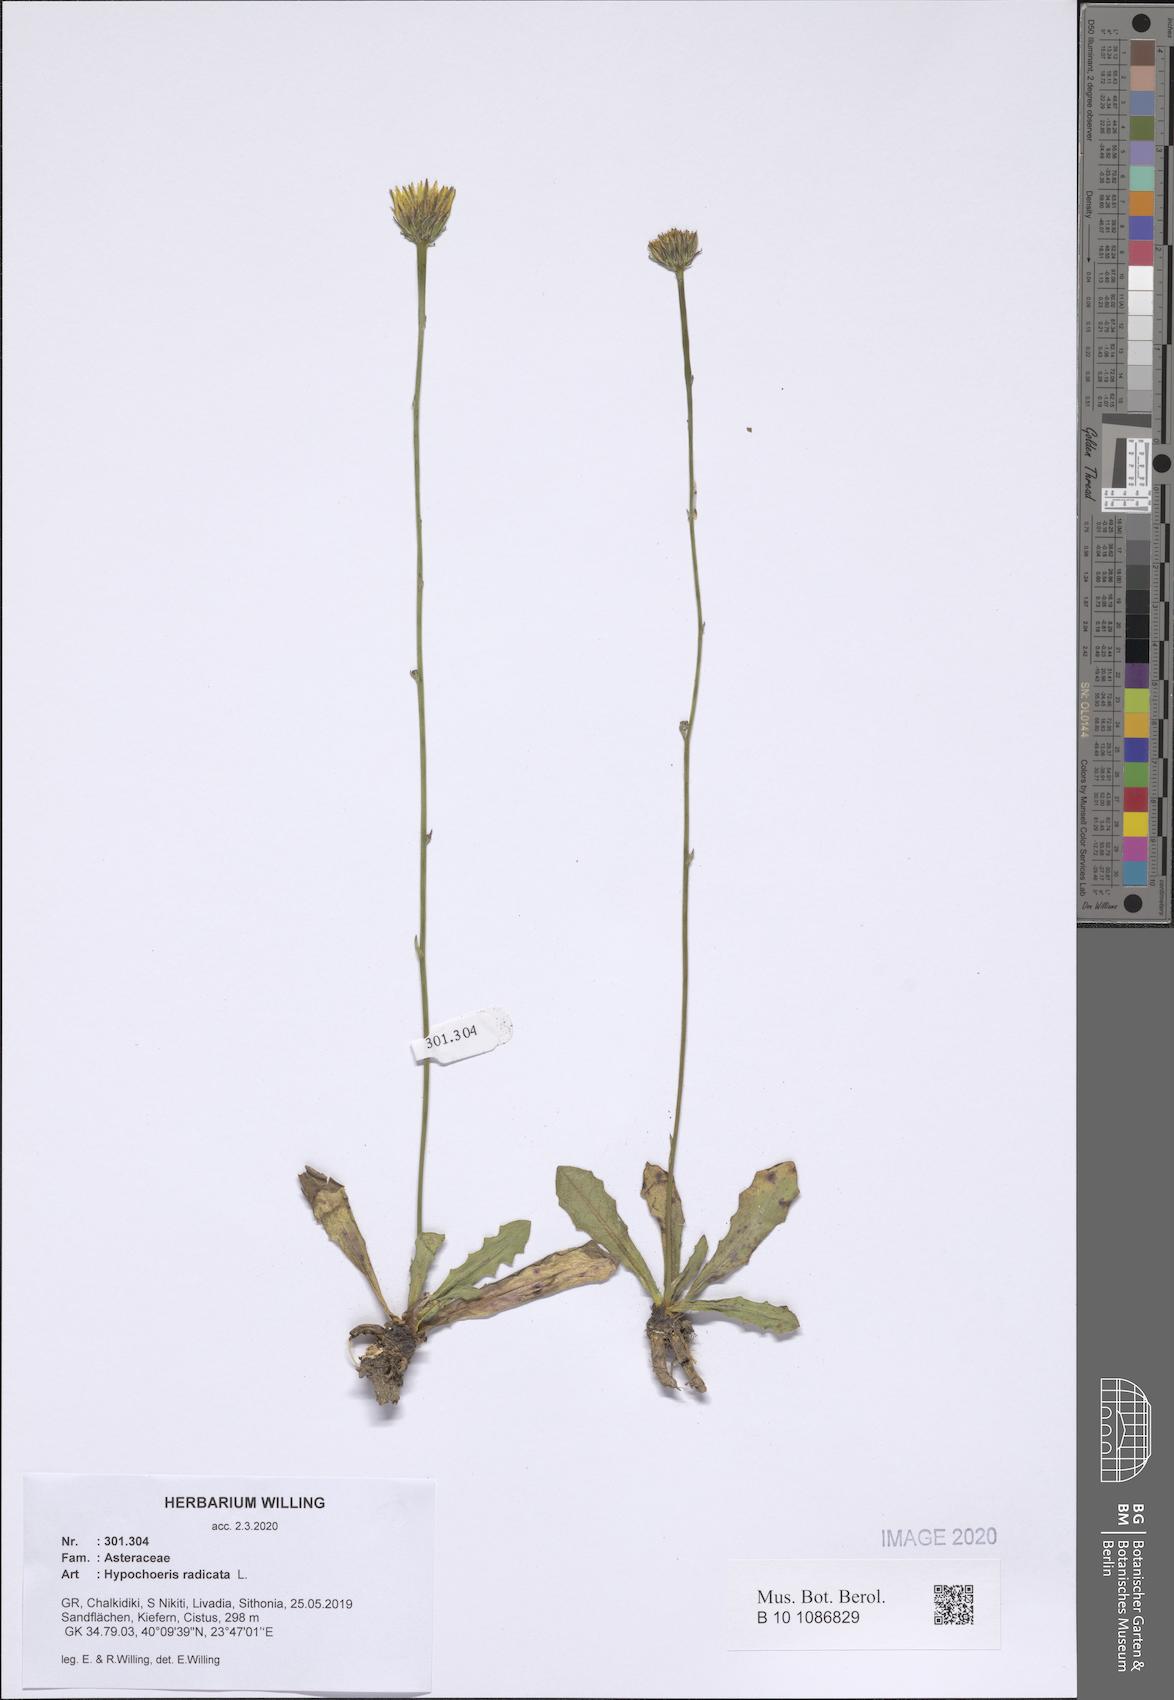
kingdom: Plantae
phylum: Tracheophyta
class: Magnoliopsida
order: Asterales
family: Asteraceae
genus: Hypochaeris
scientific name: Hypochaeris radicata
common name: Flatweed
